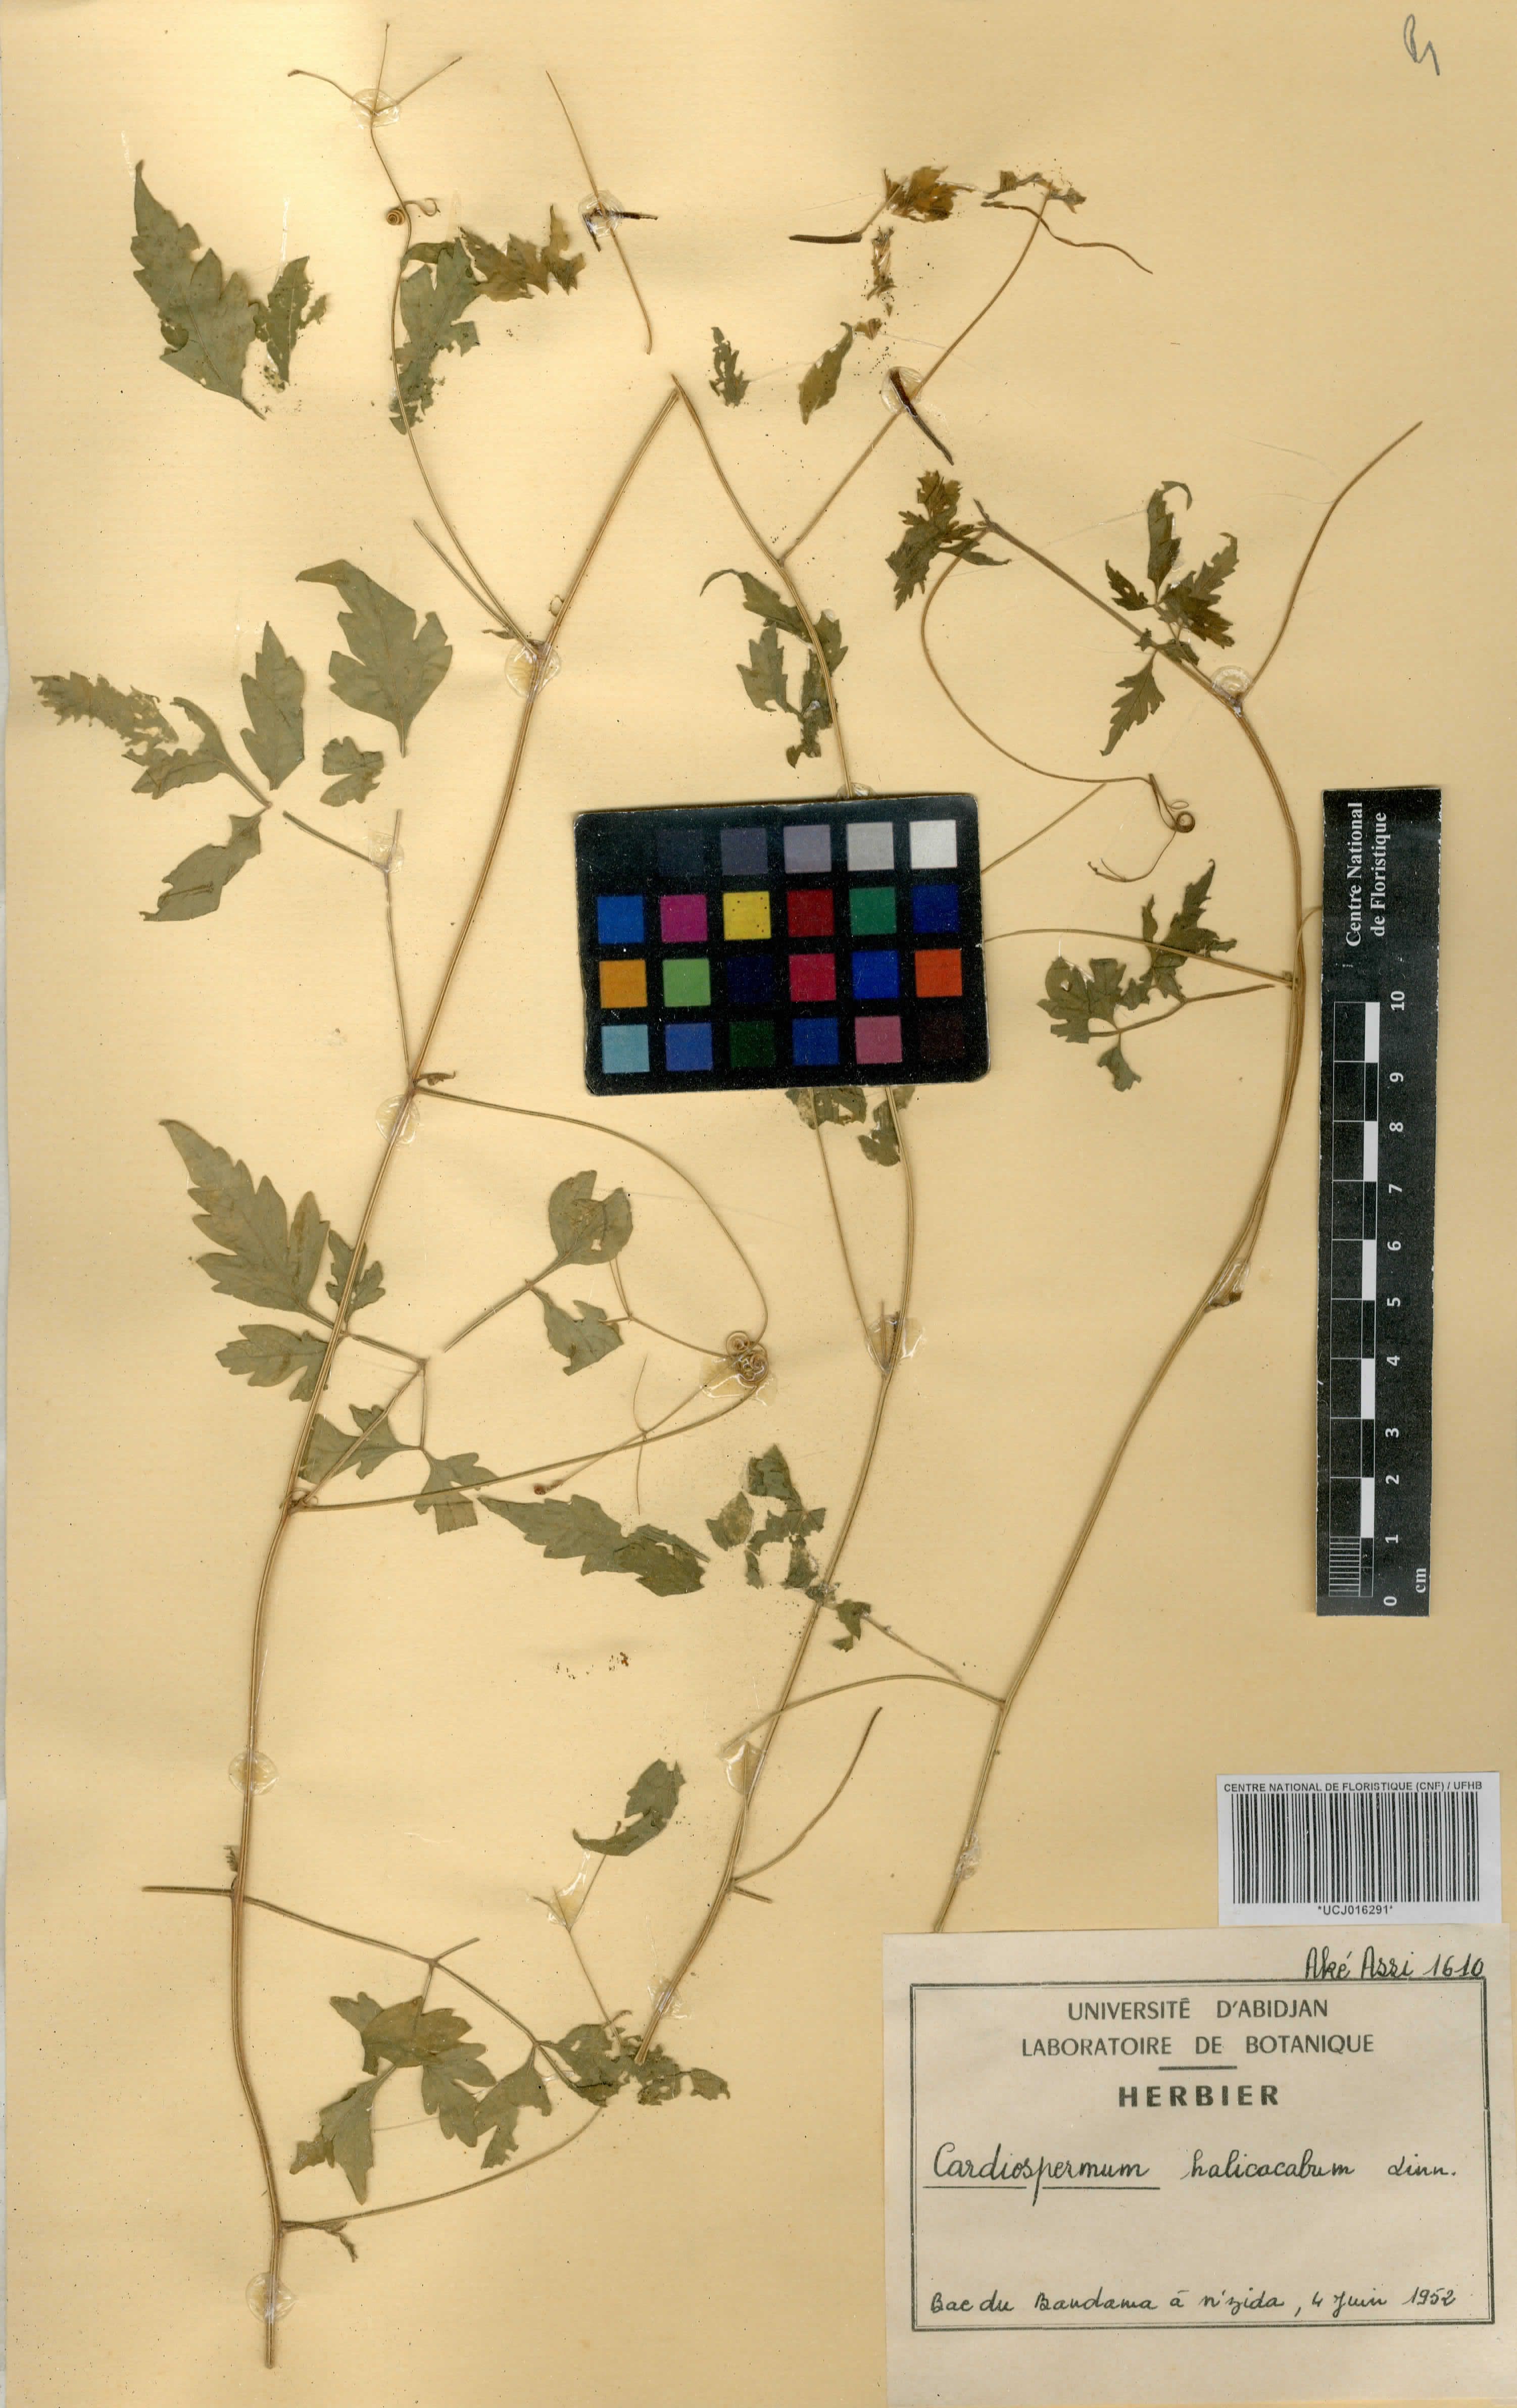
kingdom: Plantae
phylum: Tracheophyta
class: Magnoliopsida
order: Sapindales
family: Sapindaceae
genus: Cardiospermum
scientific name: Cardiospermum halicacabum
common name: Balloon vine
